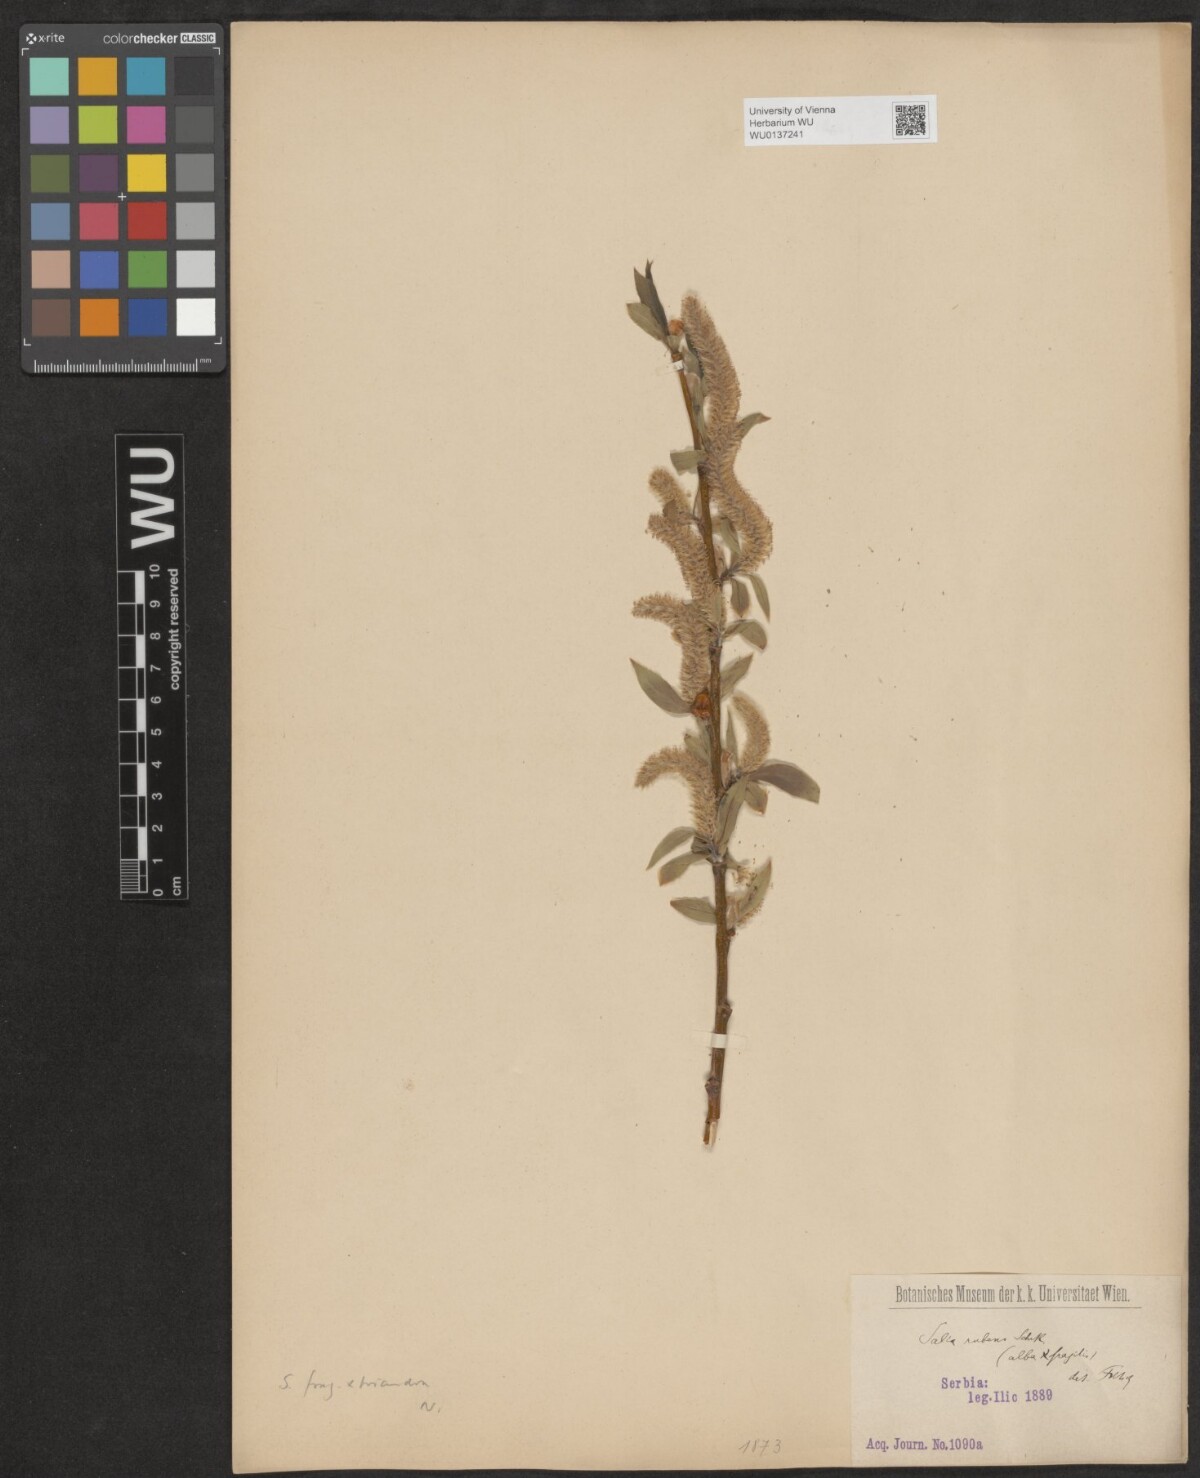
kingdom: Plantae
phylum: Tracheophyta
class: Magnoliopsida
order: Malpighiales
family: Salicaceae
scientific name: Salicaceae
